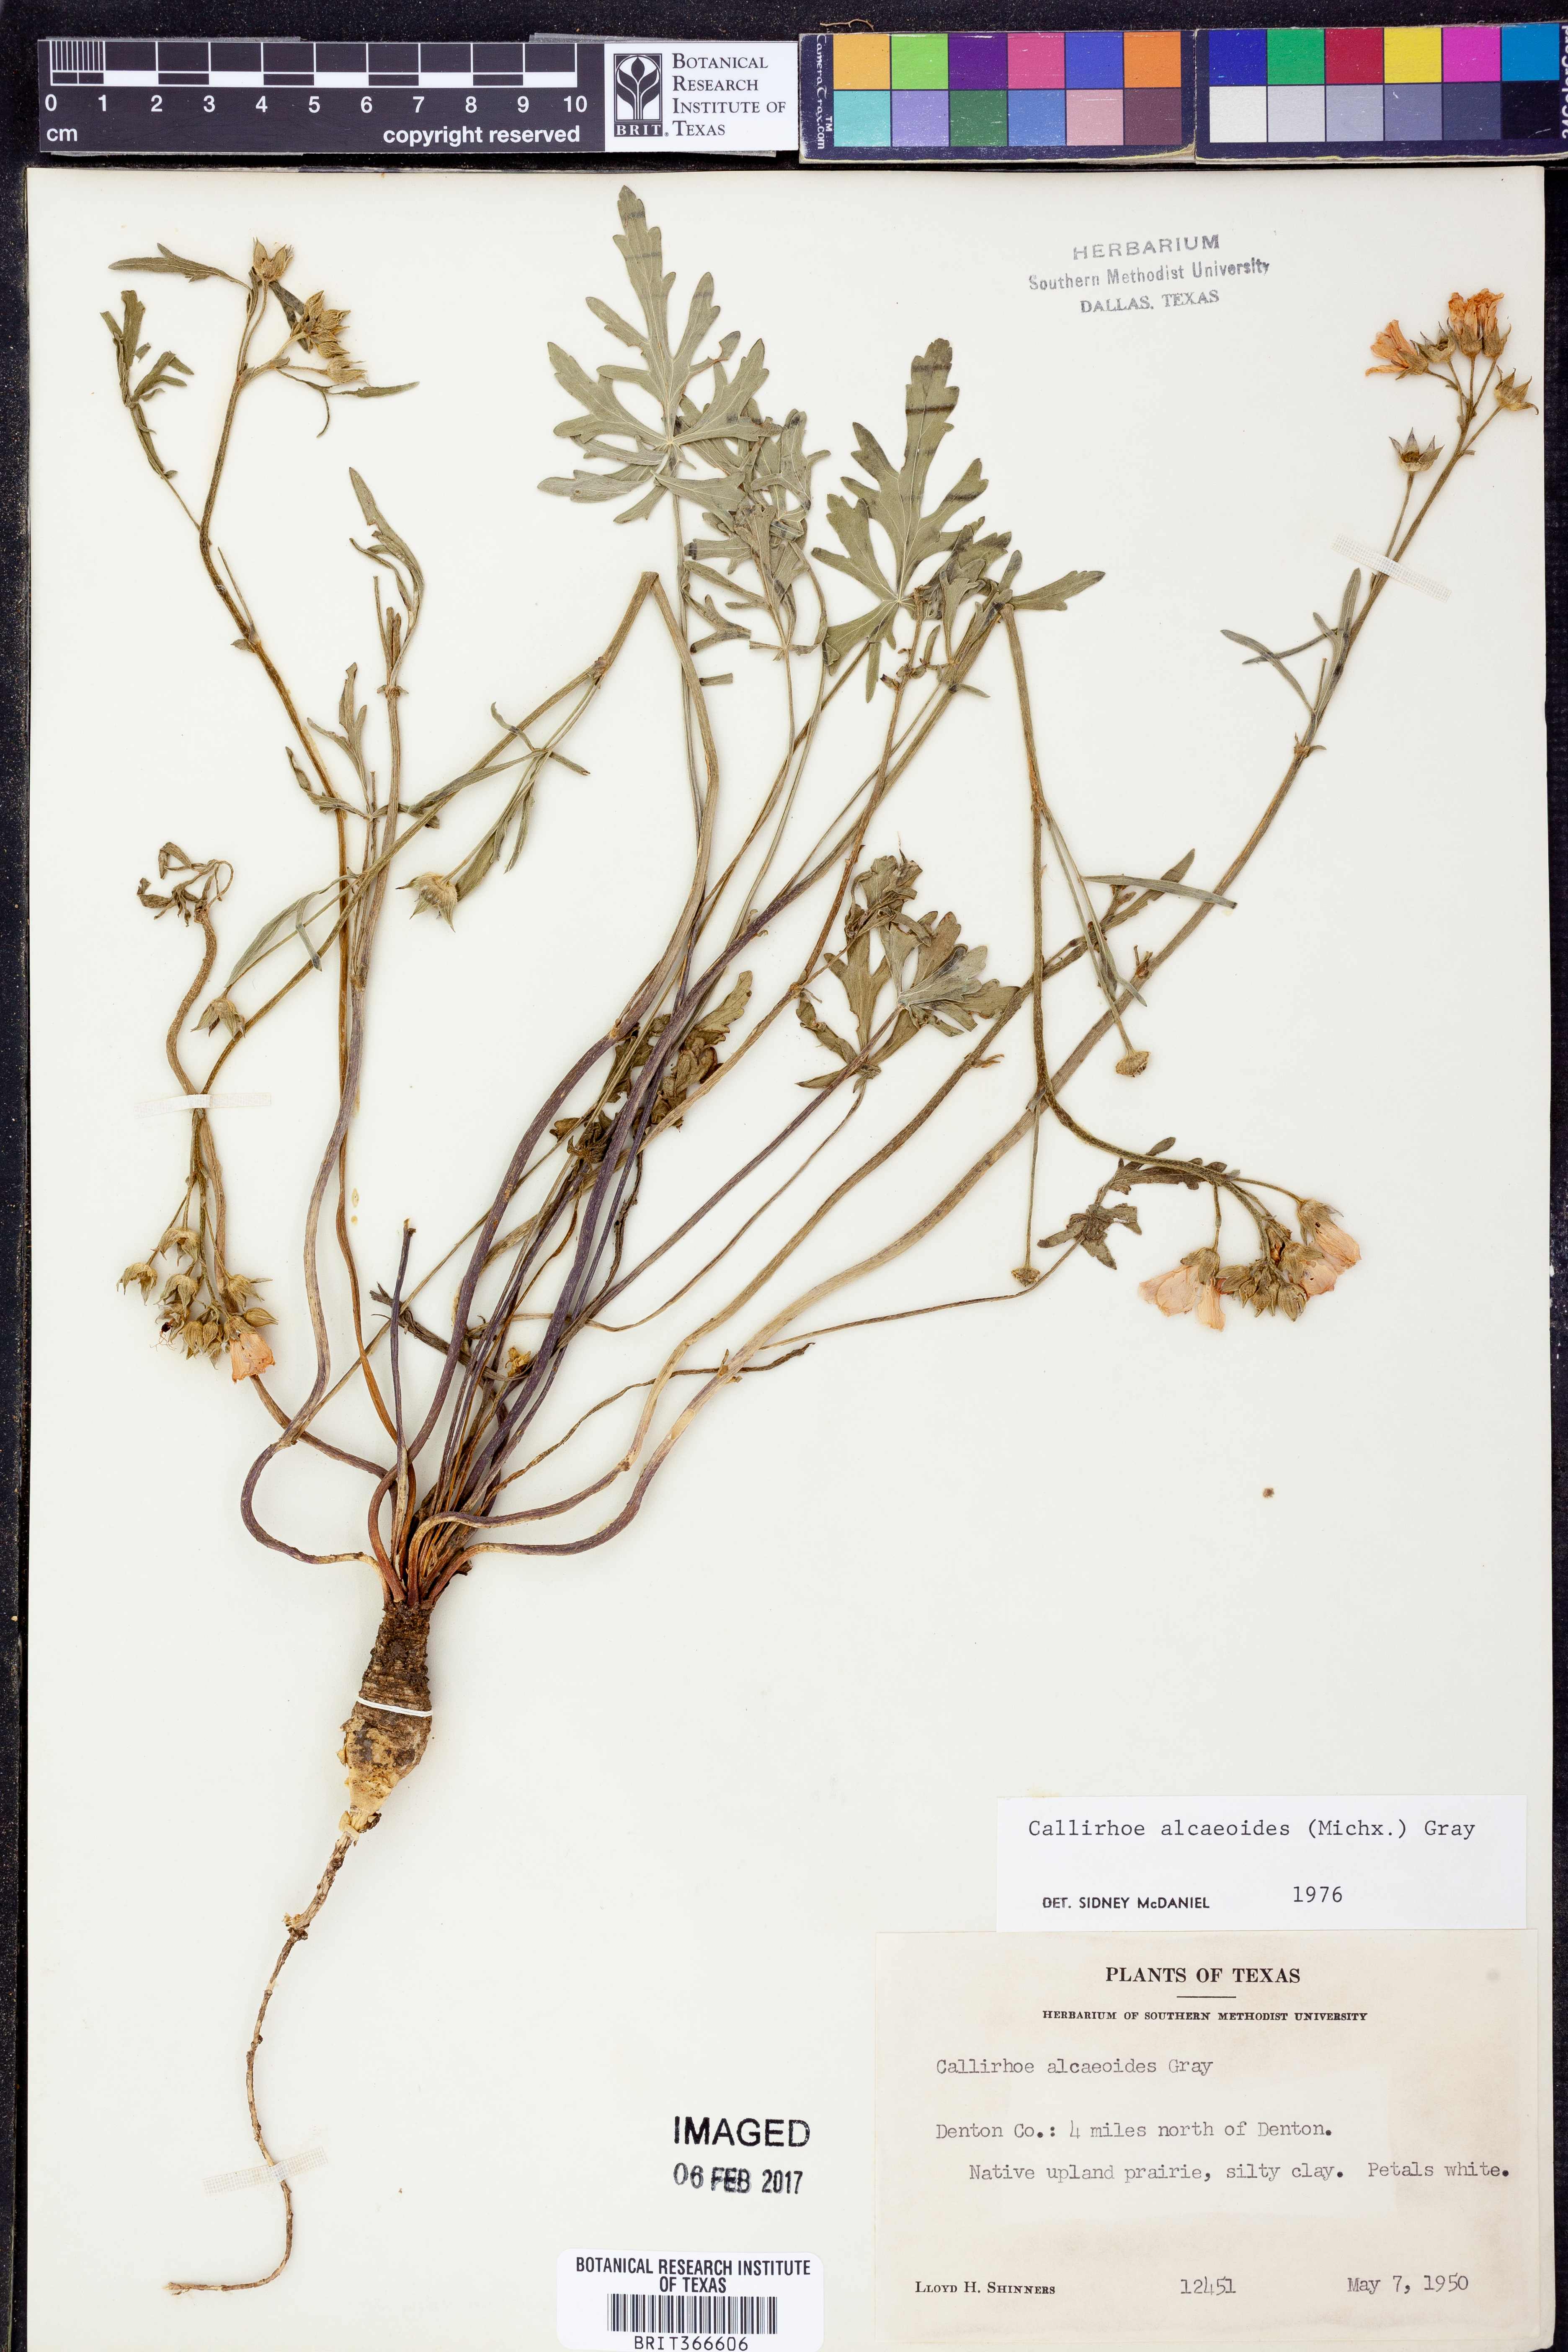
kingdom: Plantae
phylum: Tracheophyta
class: Magnoliopsida
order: Malvales
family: Malvaceae
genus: Callirhoe
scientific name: Callirhoe alcaeoides
